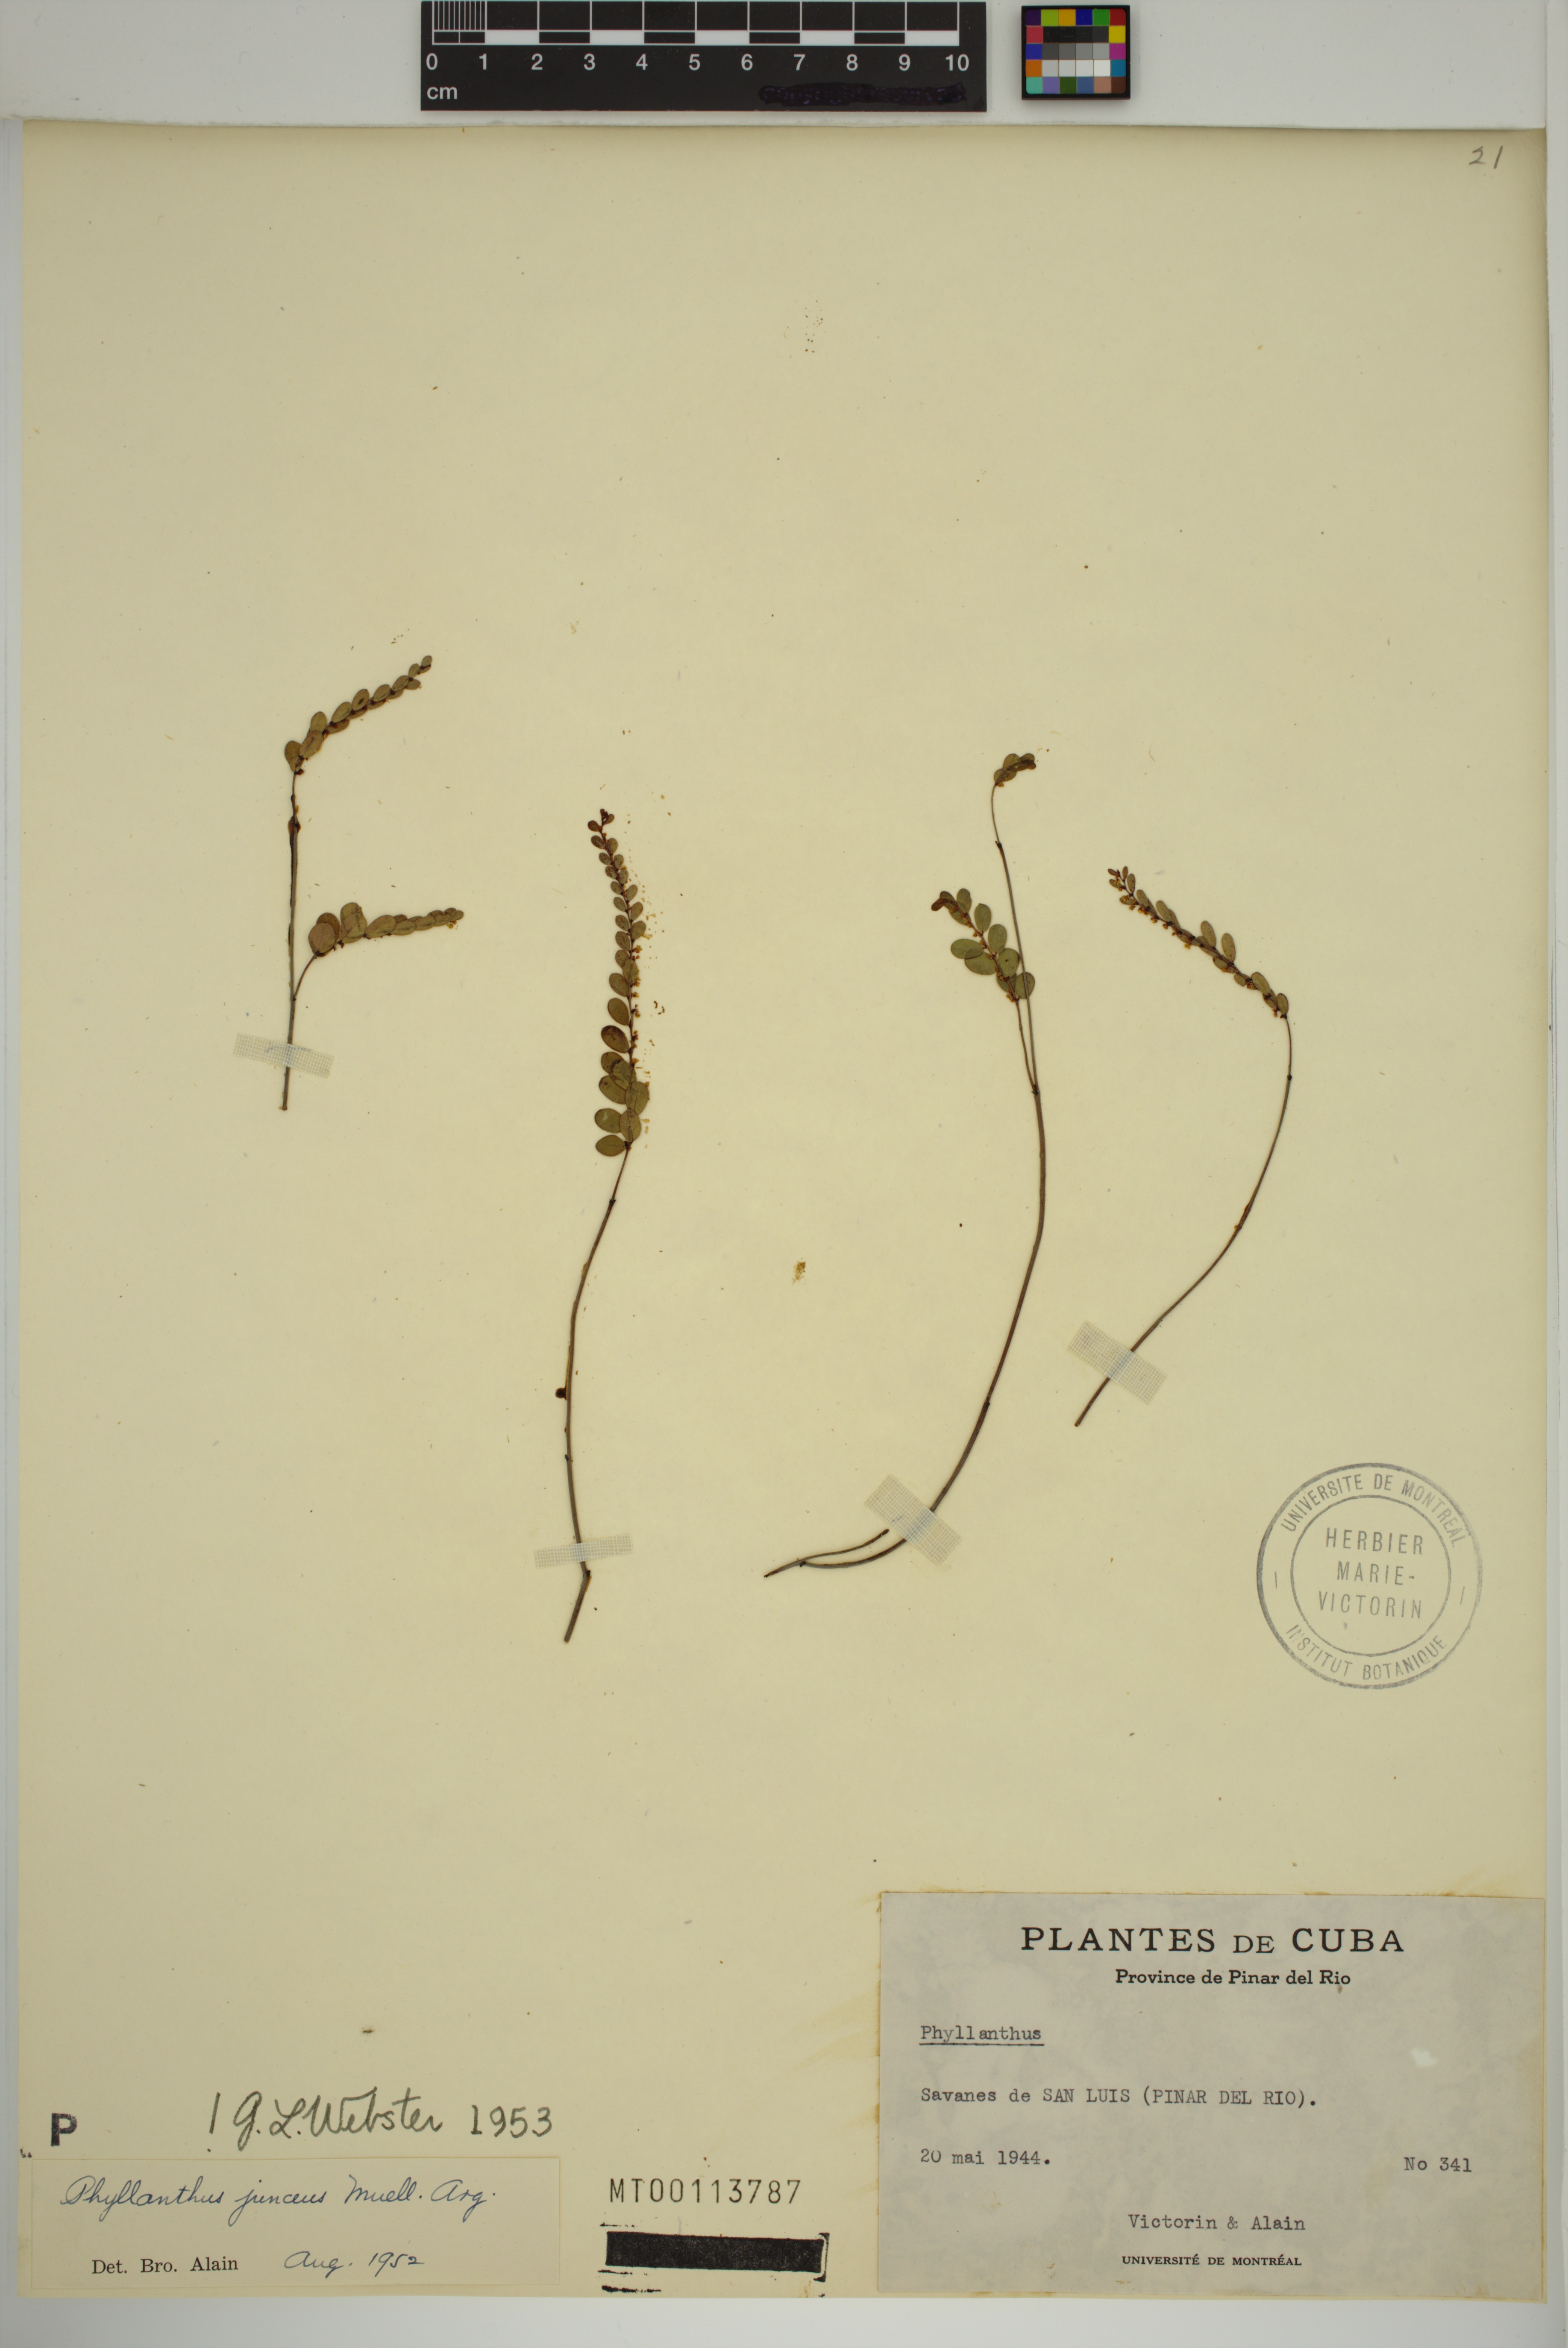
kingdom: Plantae
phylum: Tracheophyta
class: Magnoliopsida
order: Malpighiales
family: Phyllanthaceae
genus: Phyllanthus
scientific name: Phyllanthus junceus
